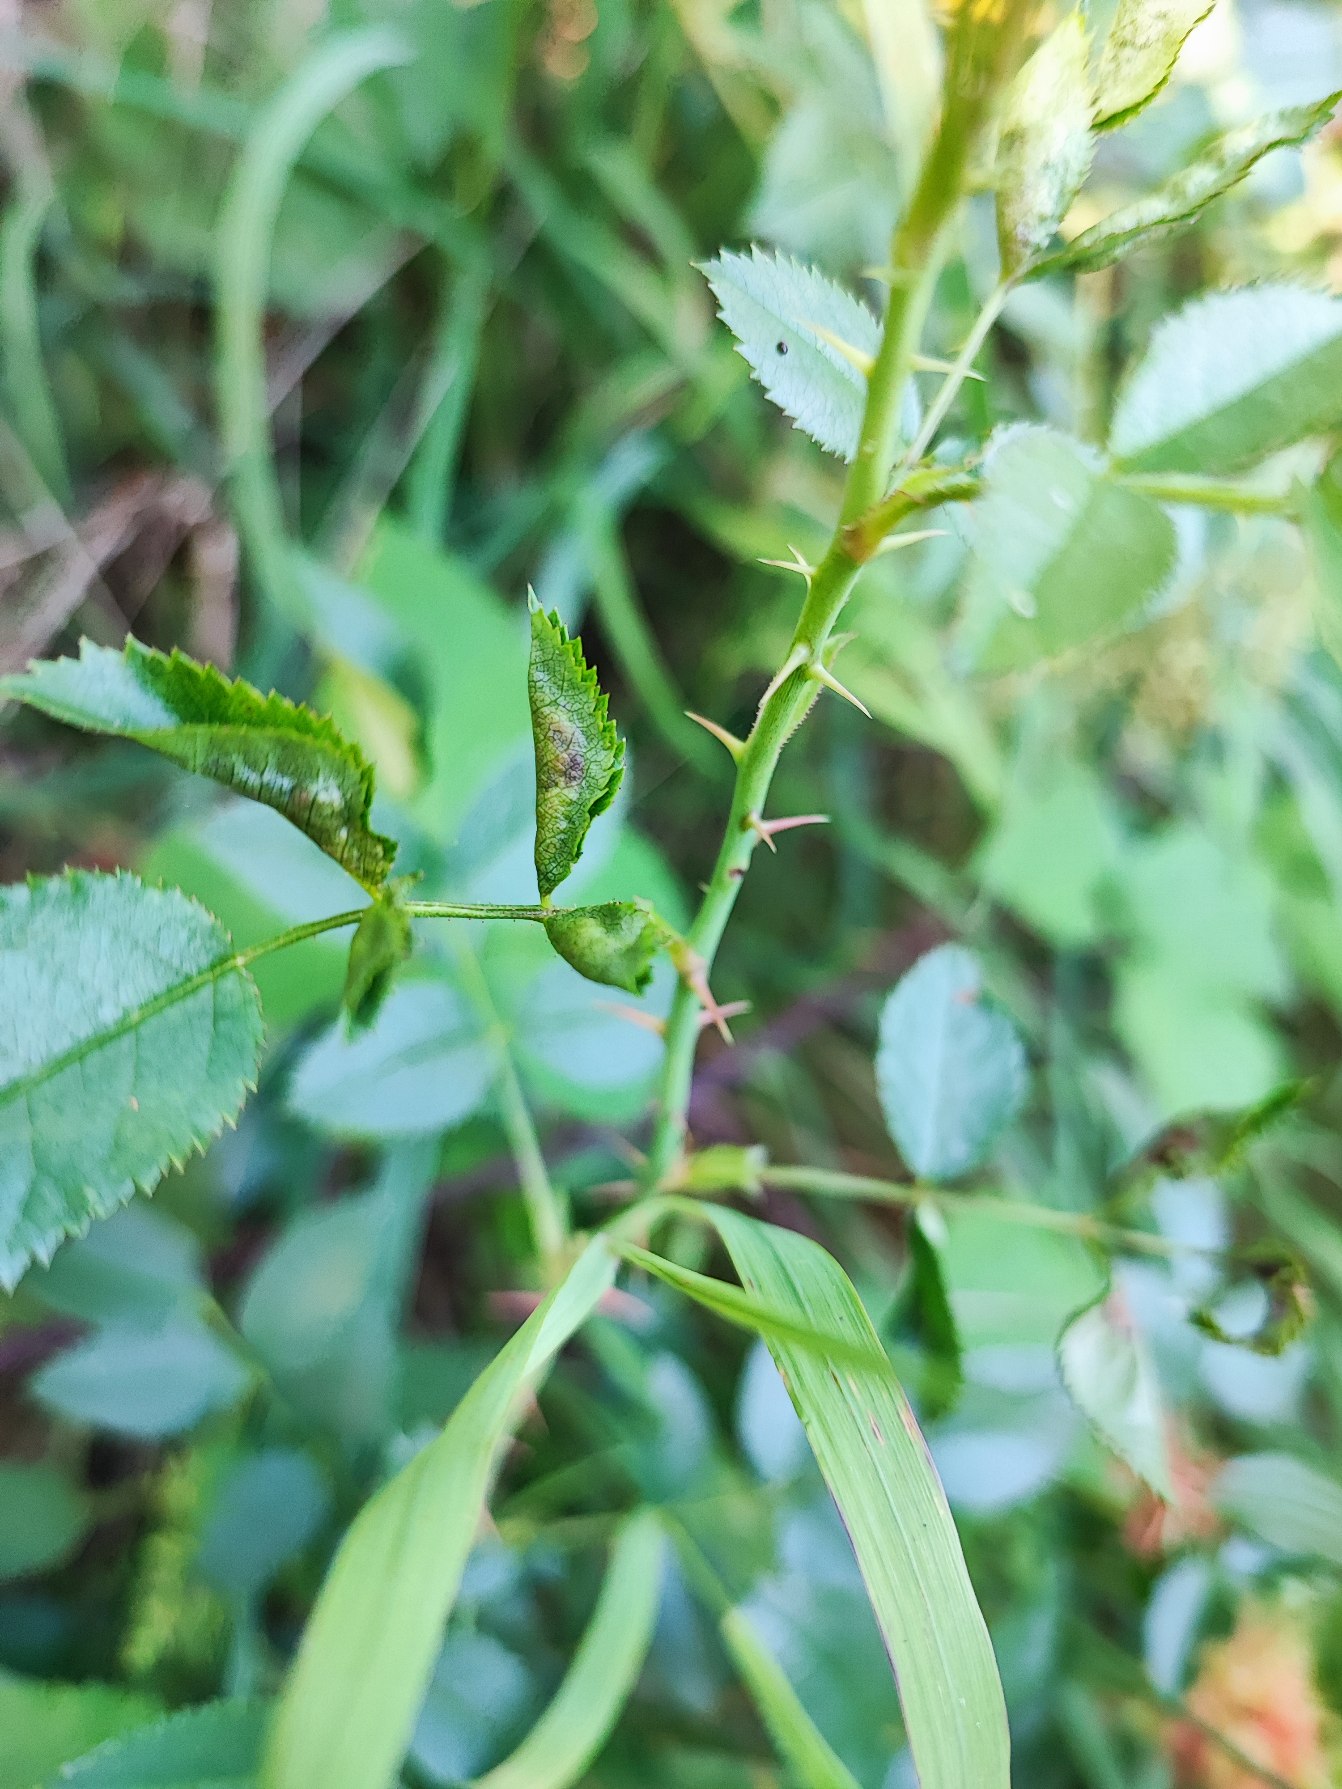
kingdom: Animalia
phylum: Arthropoda
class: Insecta
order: Diptera
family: Cecidomyiidae
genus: Wachtliella
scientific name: Wachtliella rosae
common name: Rosenbladgalmyg
